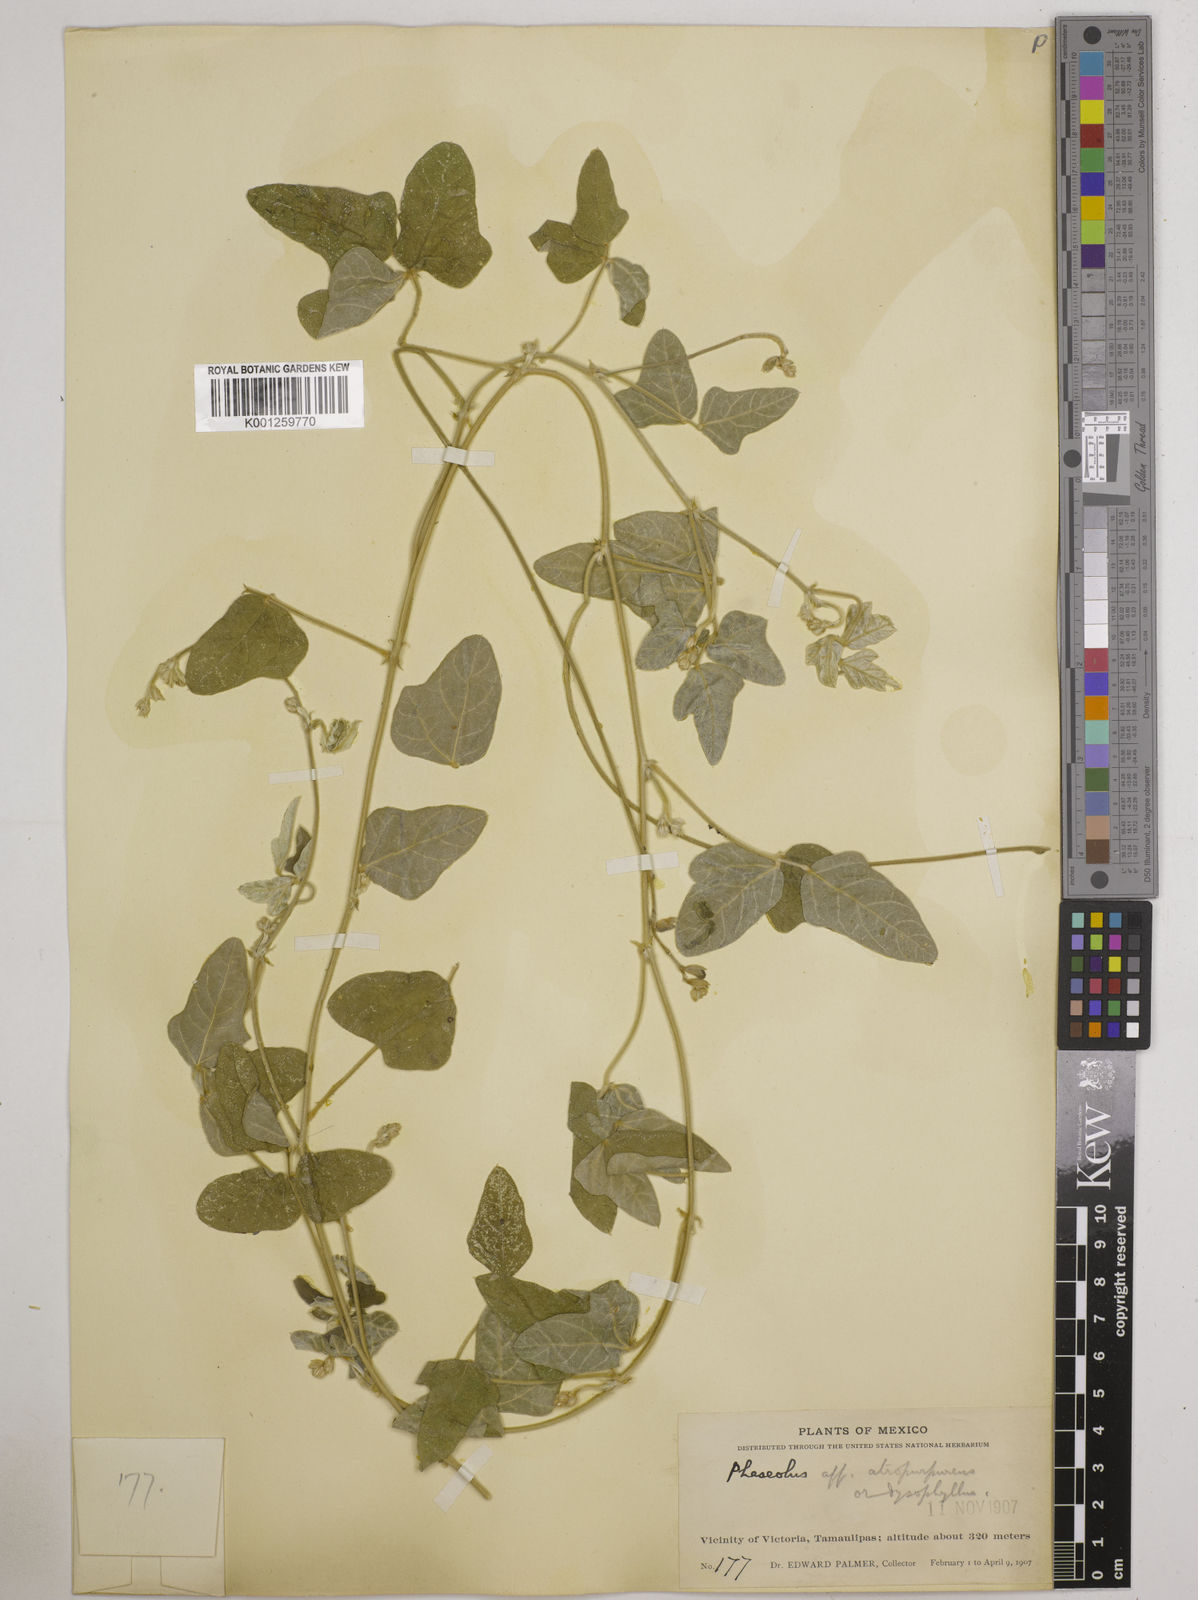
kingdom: Plantae
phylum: Tracheophyta
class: Magnoliopsida
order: Fabales
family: Fabaceae
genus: Macroptilium
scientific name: Macroptilium atropurpureum
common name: Purple bushbean
